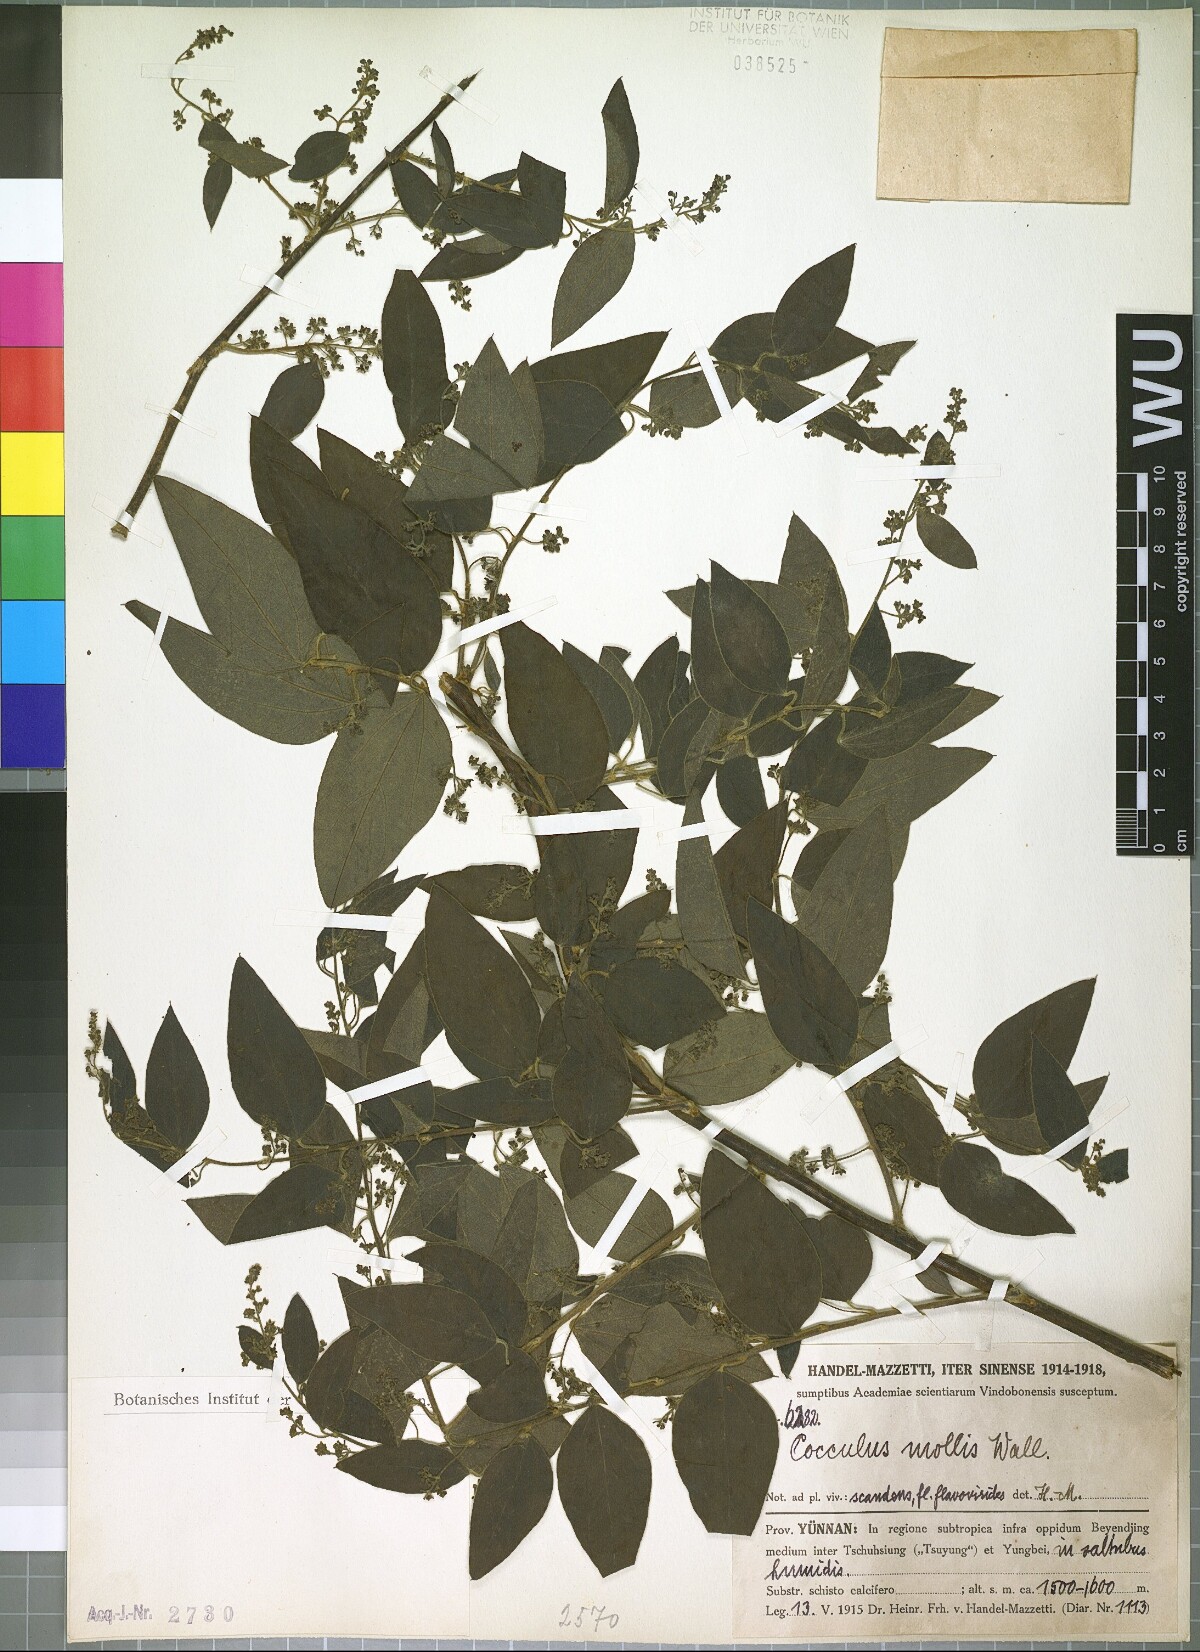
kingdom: Plantae
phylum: Tracheophyta
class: Magnoliopsida
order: Ranunculales
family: Menispermaceae
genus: Cocculus
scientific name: Cocculus orbiculatus
